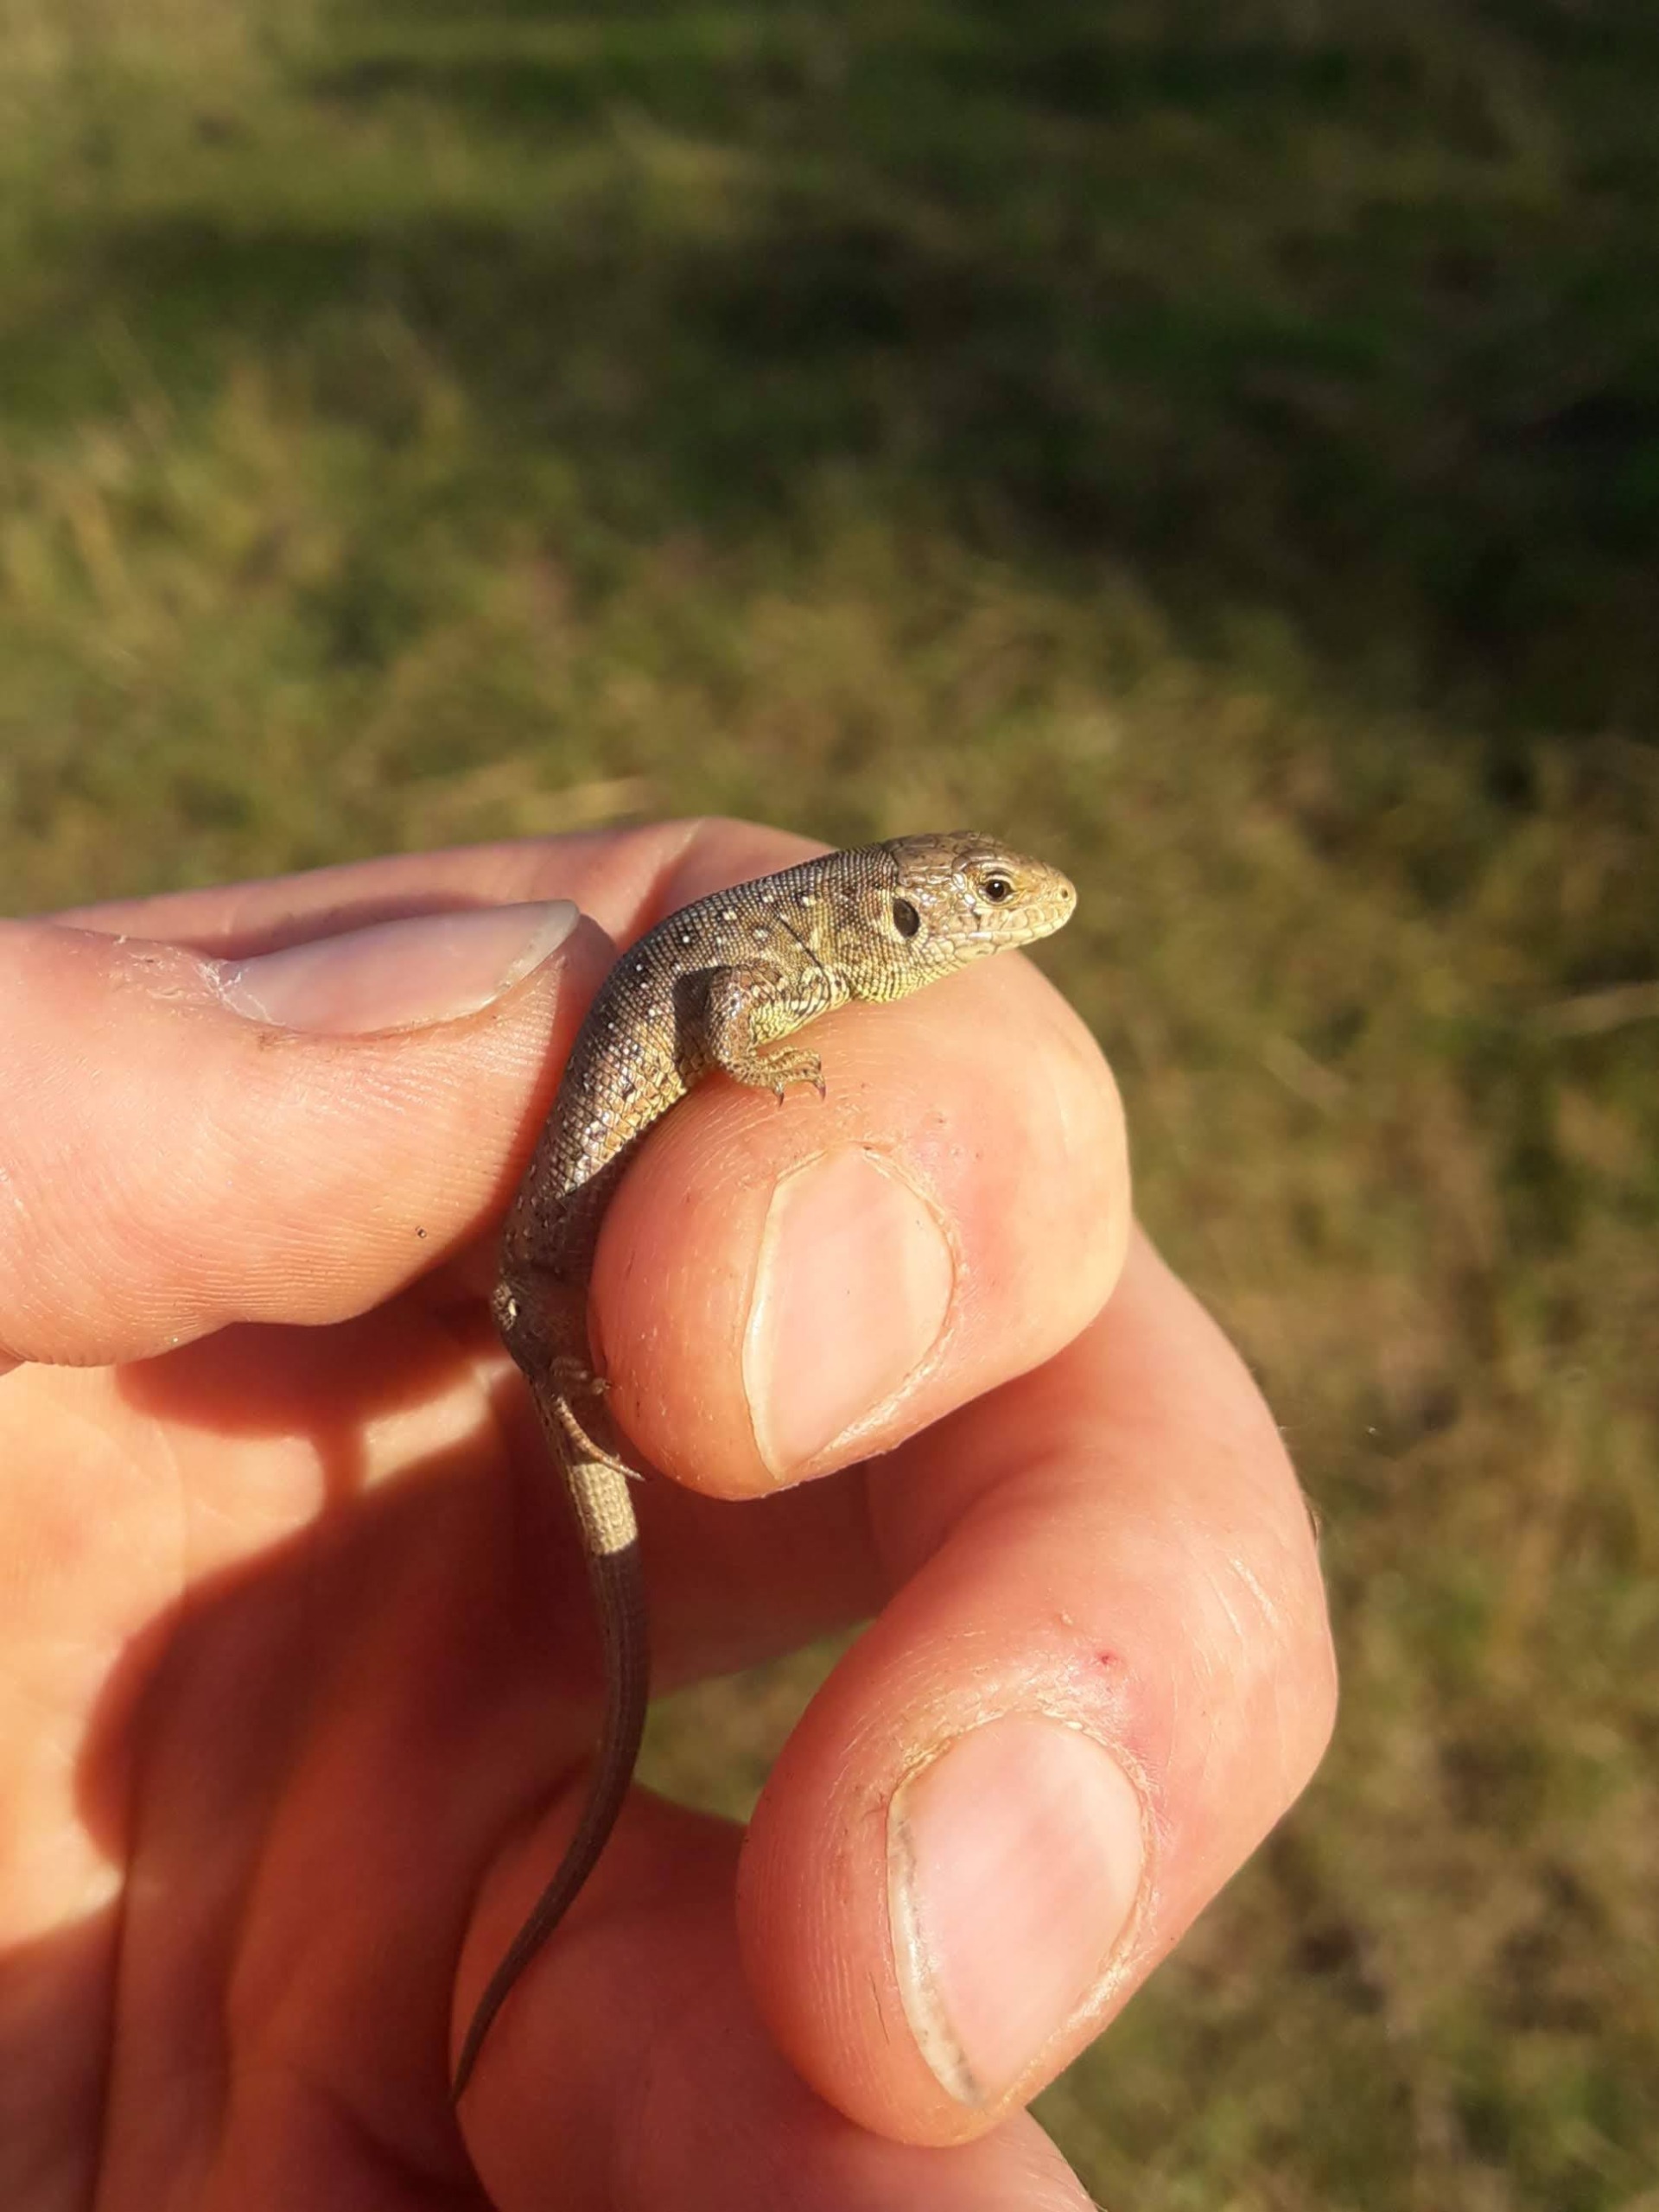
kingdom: Animalia
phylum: Chordata
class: Squamata
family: Lacertidae
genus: Lacerta
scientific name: Lacerta agilis
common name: Markfirben
